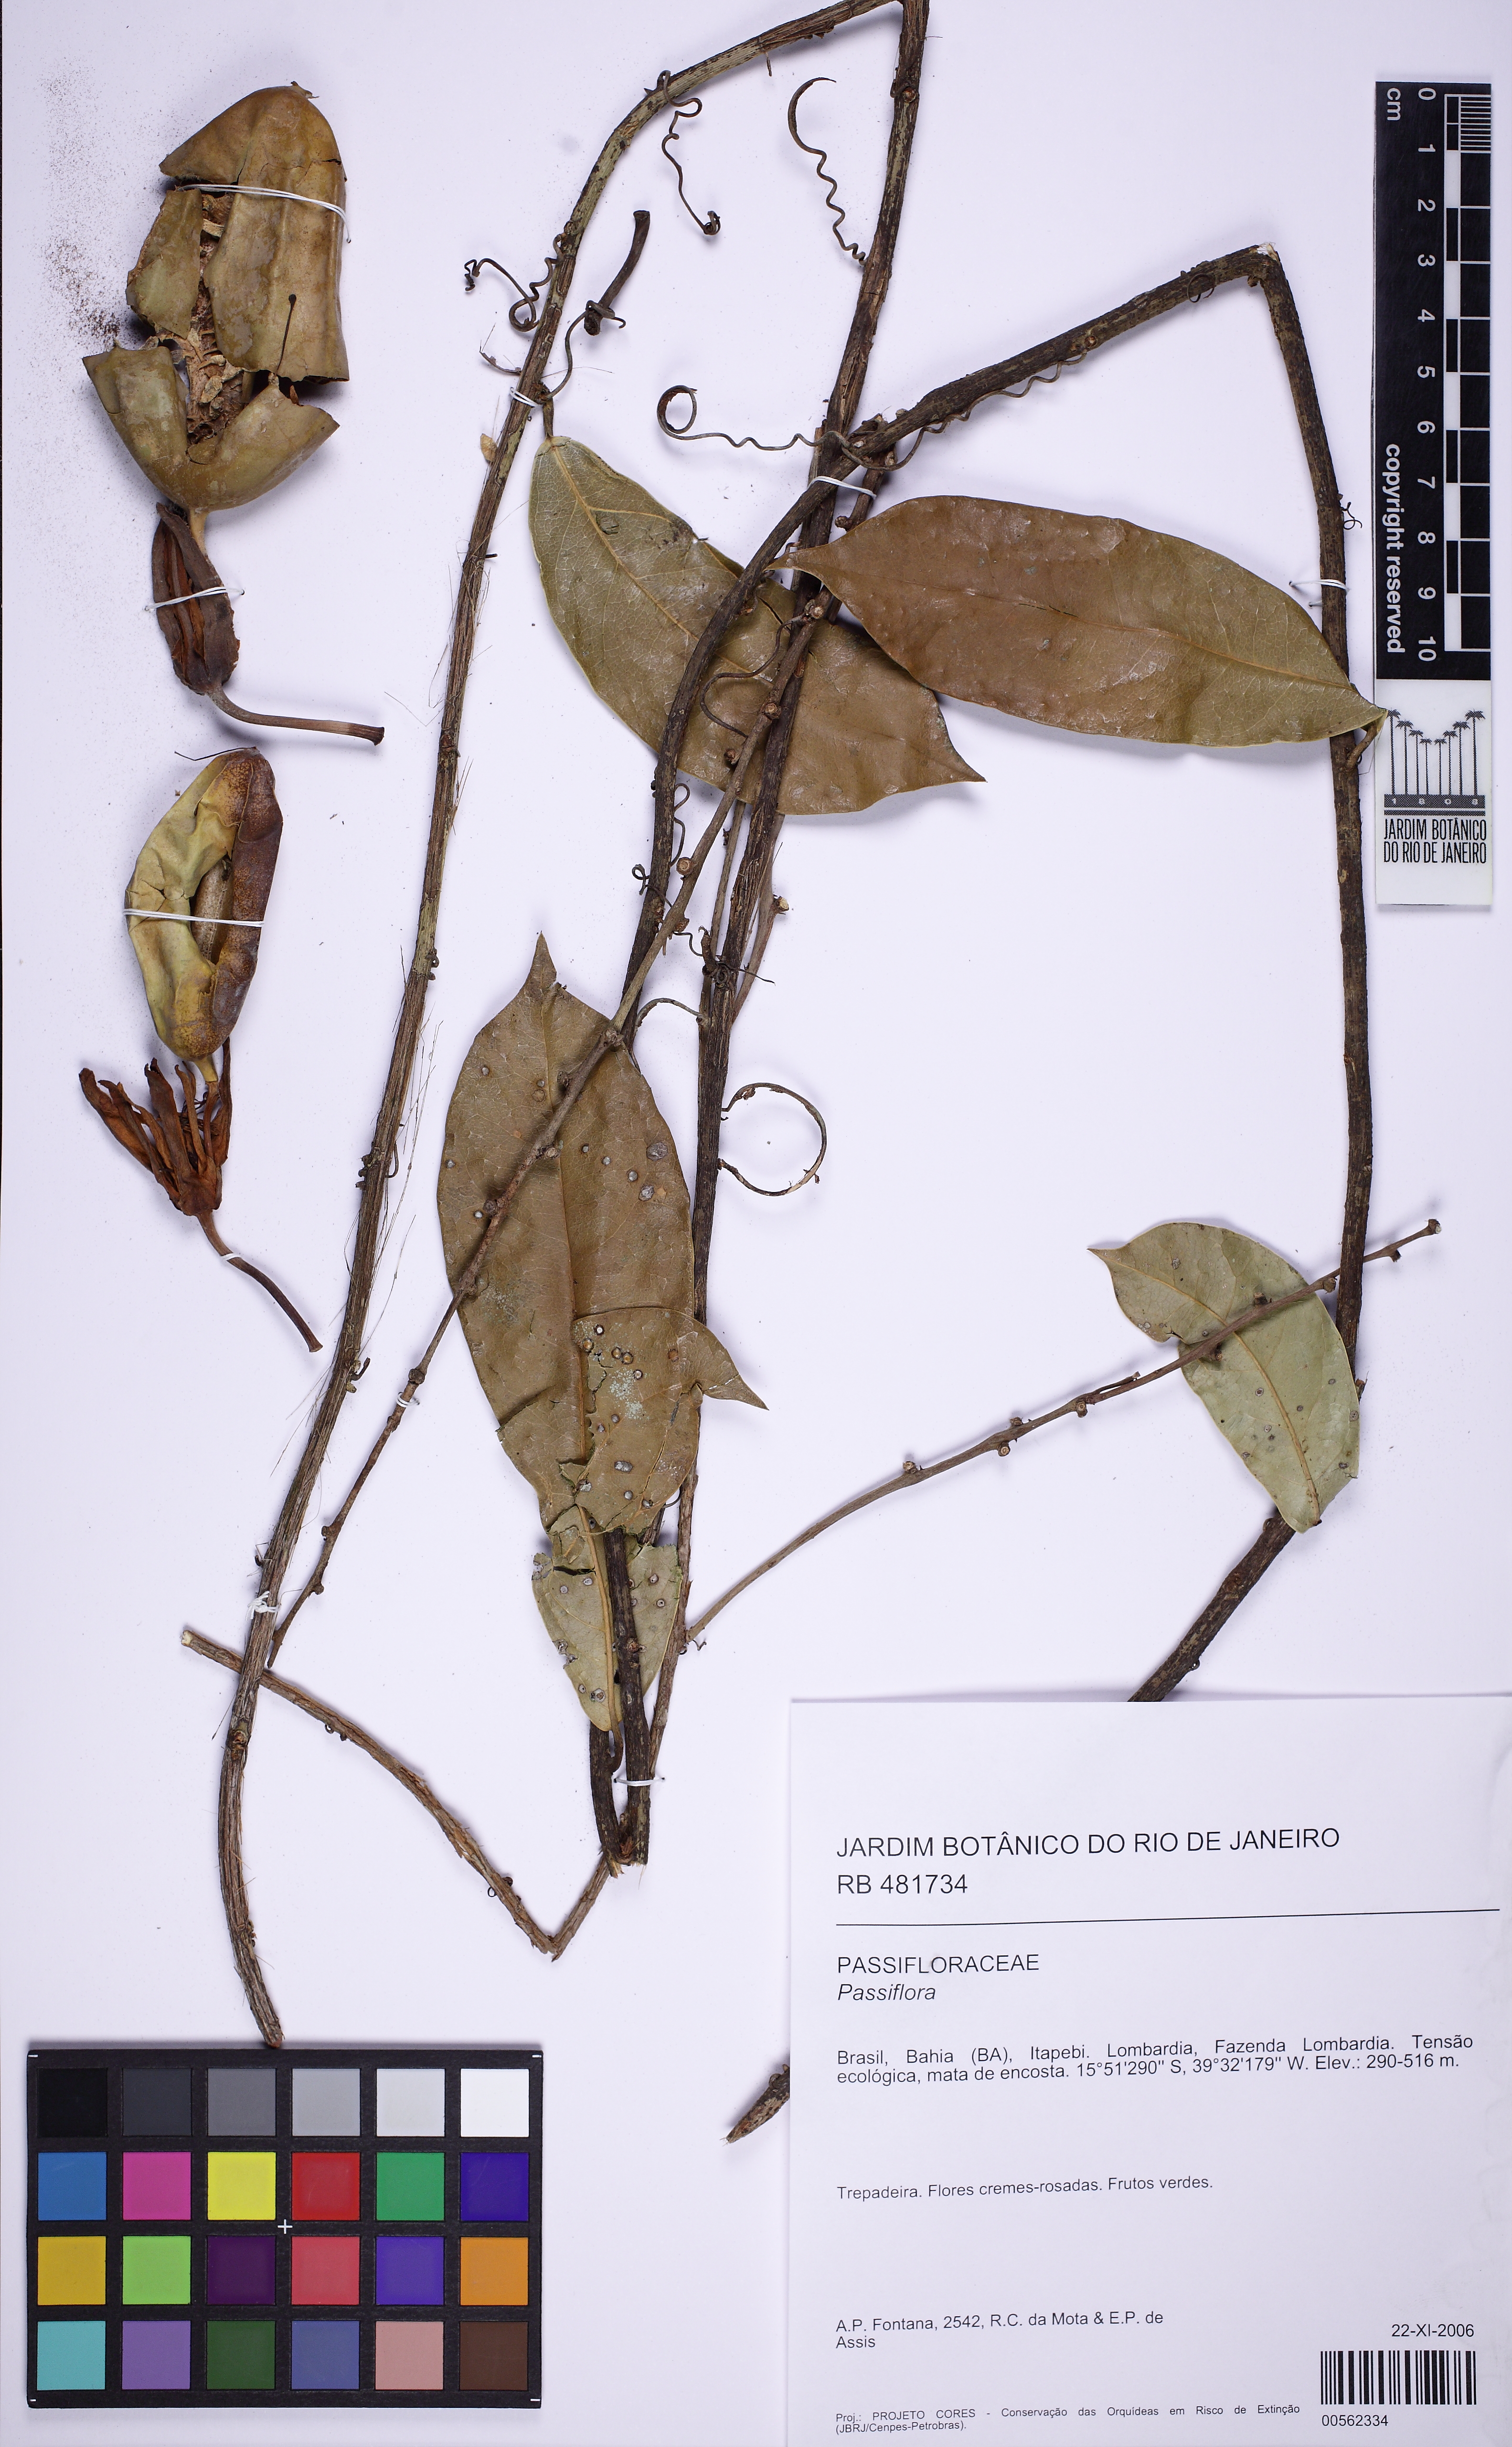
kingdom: Plantae
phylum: Tracheophyta
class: Magnoliopsida
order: Malpighiales
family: Passifloraceae
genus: Passiflora
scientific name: Passiflora
